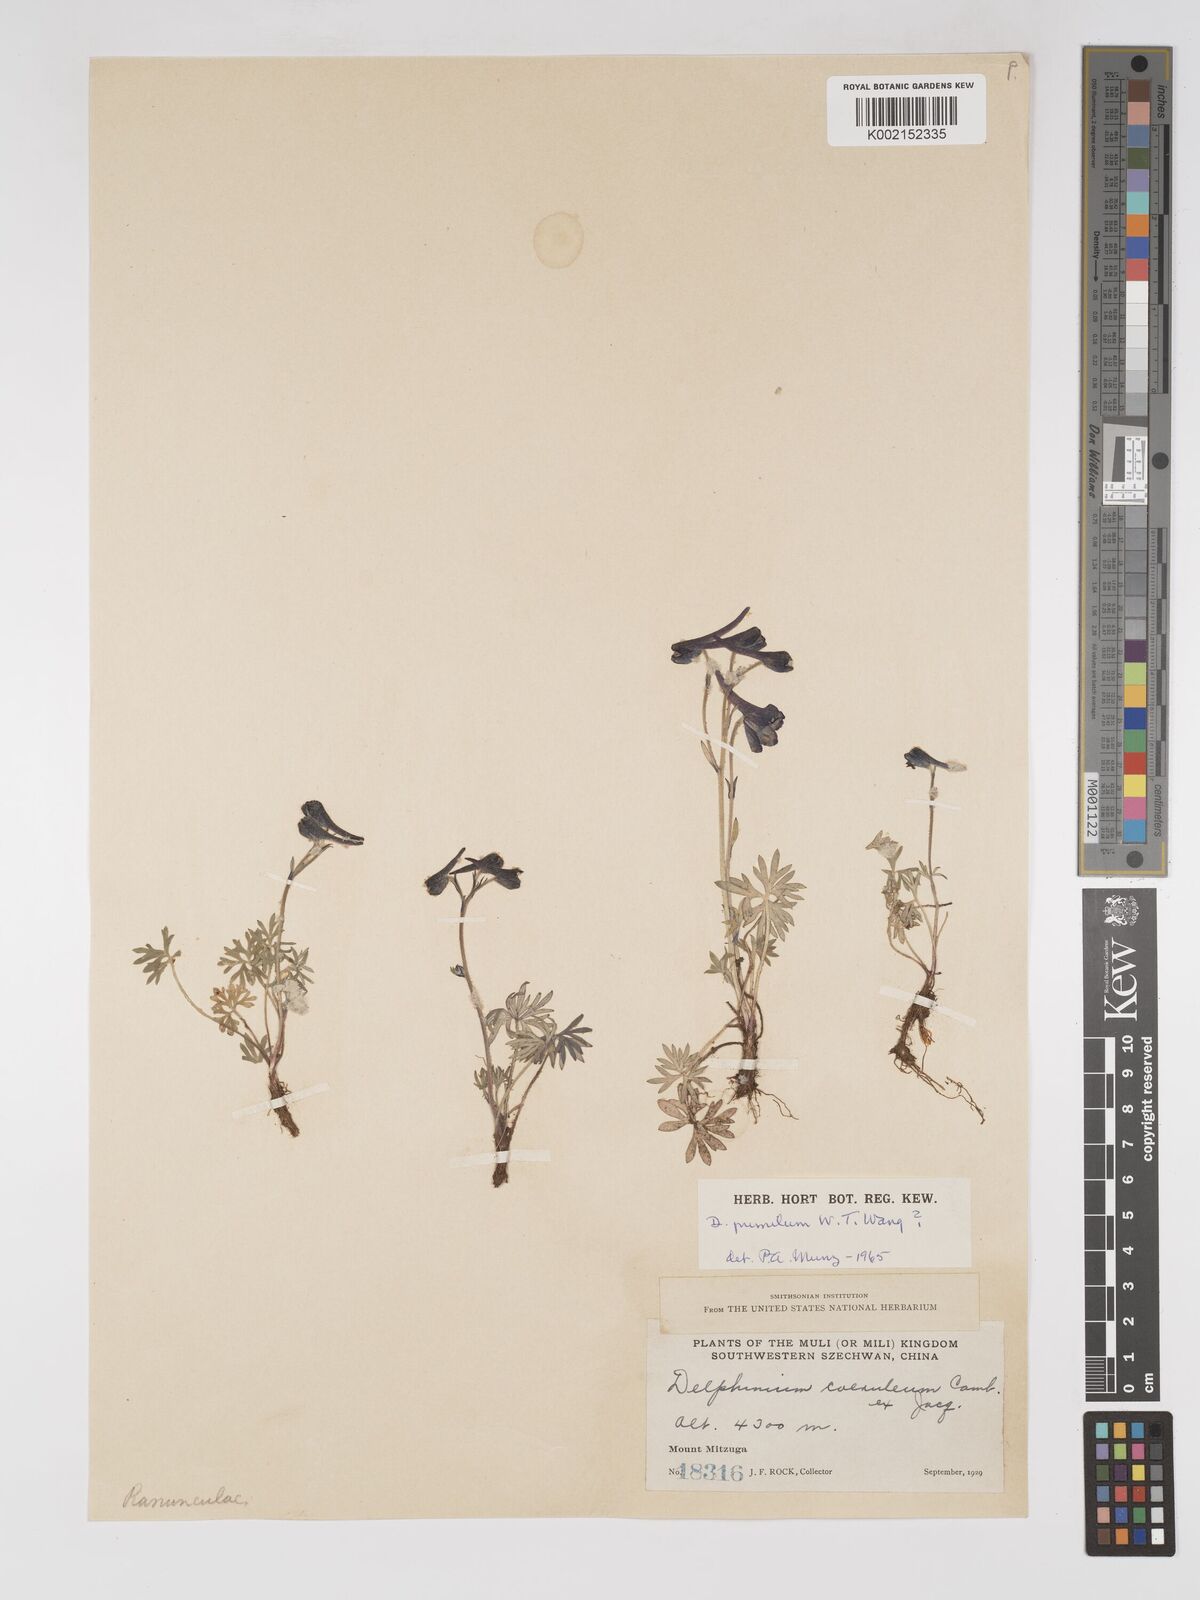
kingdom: Plantae
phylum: Tracheophyta
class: Magnoliopsida
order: Ranunculales
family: Ranunculaceae
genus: Delphinium
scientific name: Delphinium pumilum
